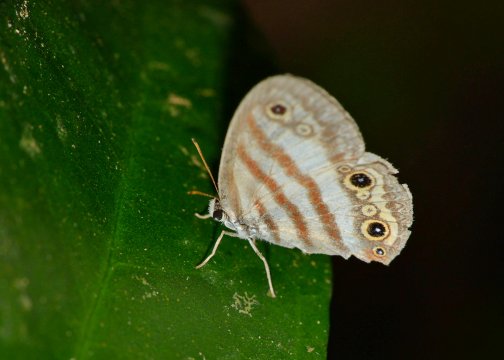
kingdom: Animalia
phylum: Arthropoda
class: Insecta
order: Lepidoptera
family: Nymphalidae
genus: Euptychia
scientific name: Euptychia mollina
